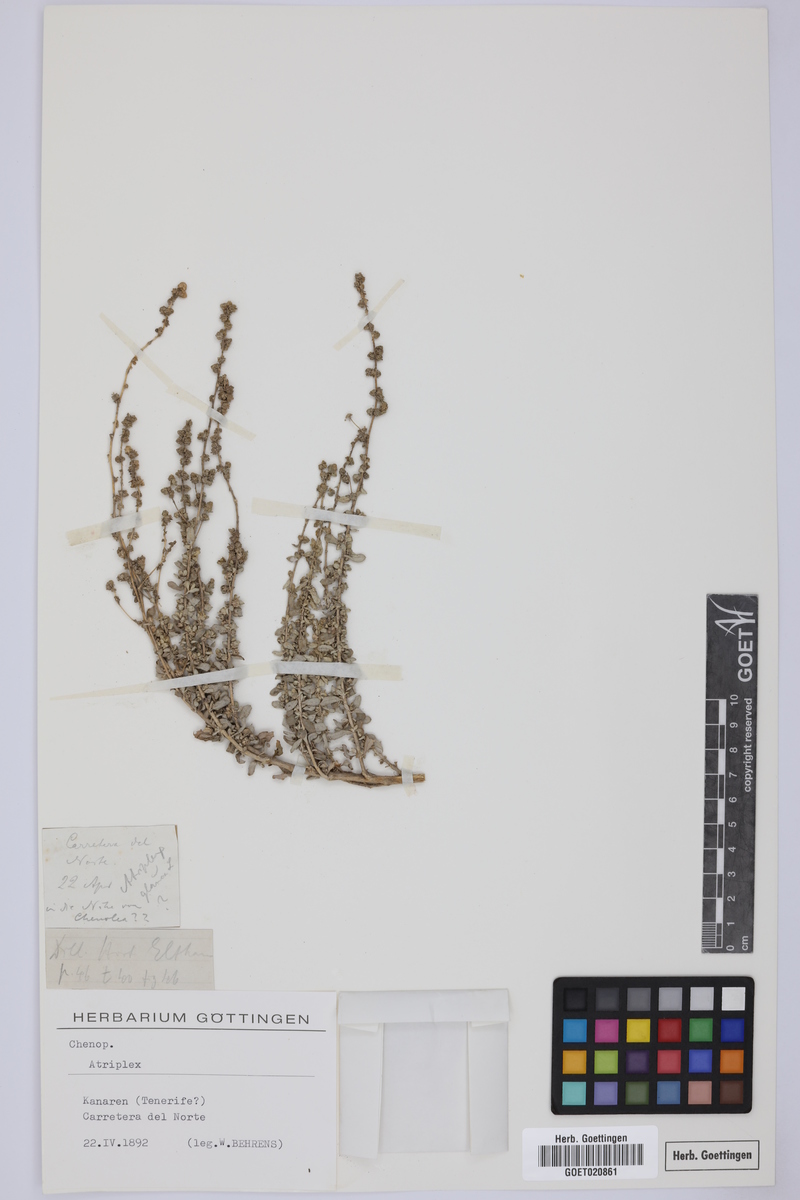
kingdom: Plantae
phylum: Tracheophyta
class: Magnoliopsida
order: Caryophyllales
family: Amaranthaceae
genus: Atriplex
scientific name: Atriplex
